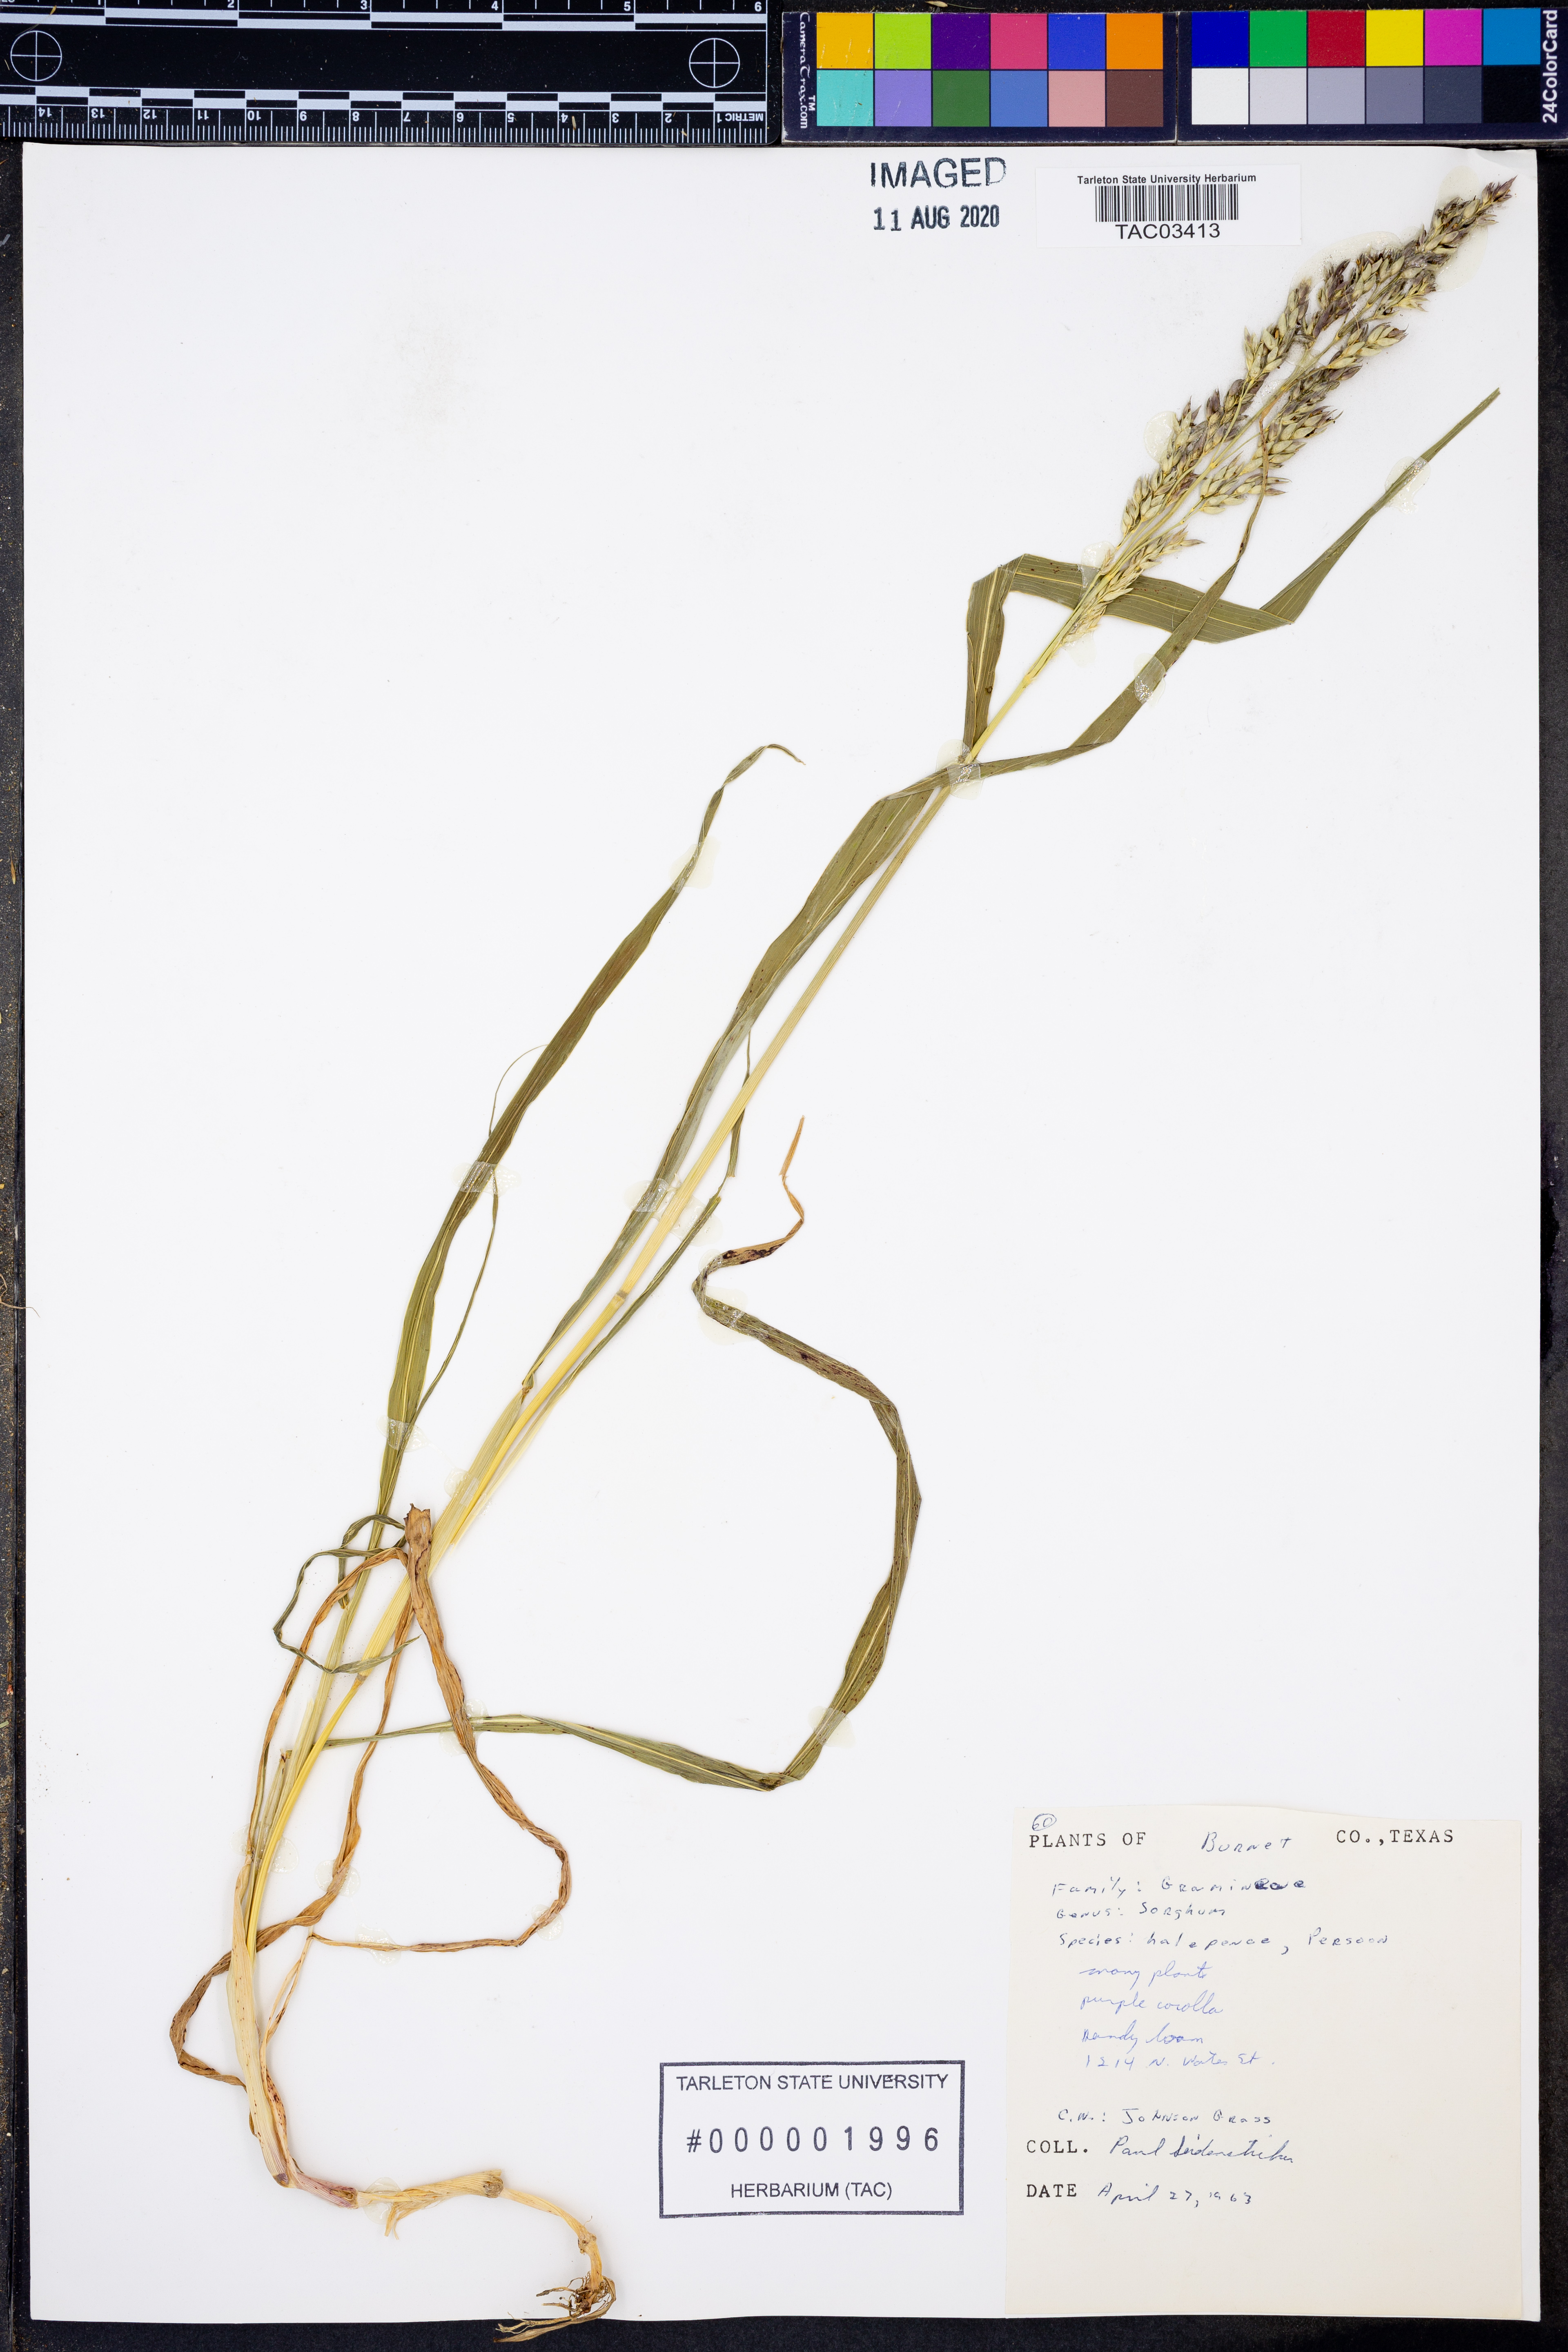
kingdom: Plantae
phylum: Tracheophyta
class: Liliopsida
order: Poales
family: Poaceae
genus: Sorghum
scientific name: Sorghum halepense
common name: Johnson-grass
